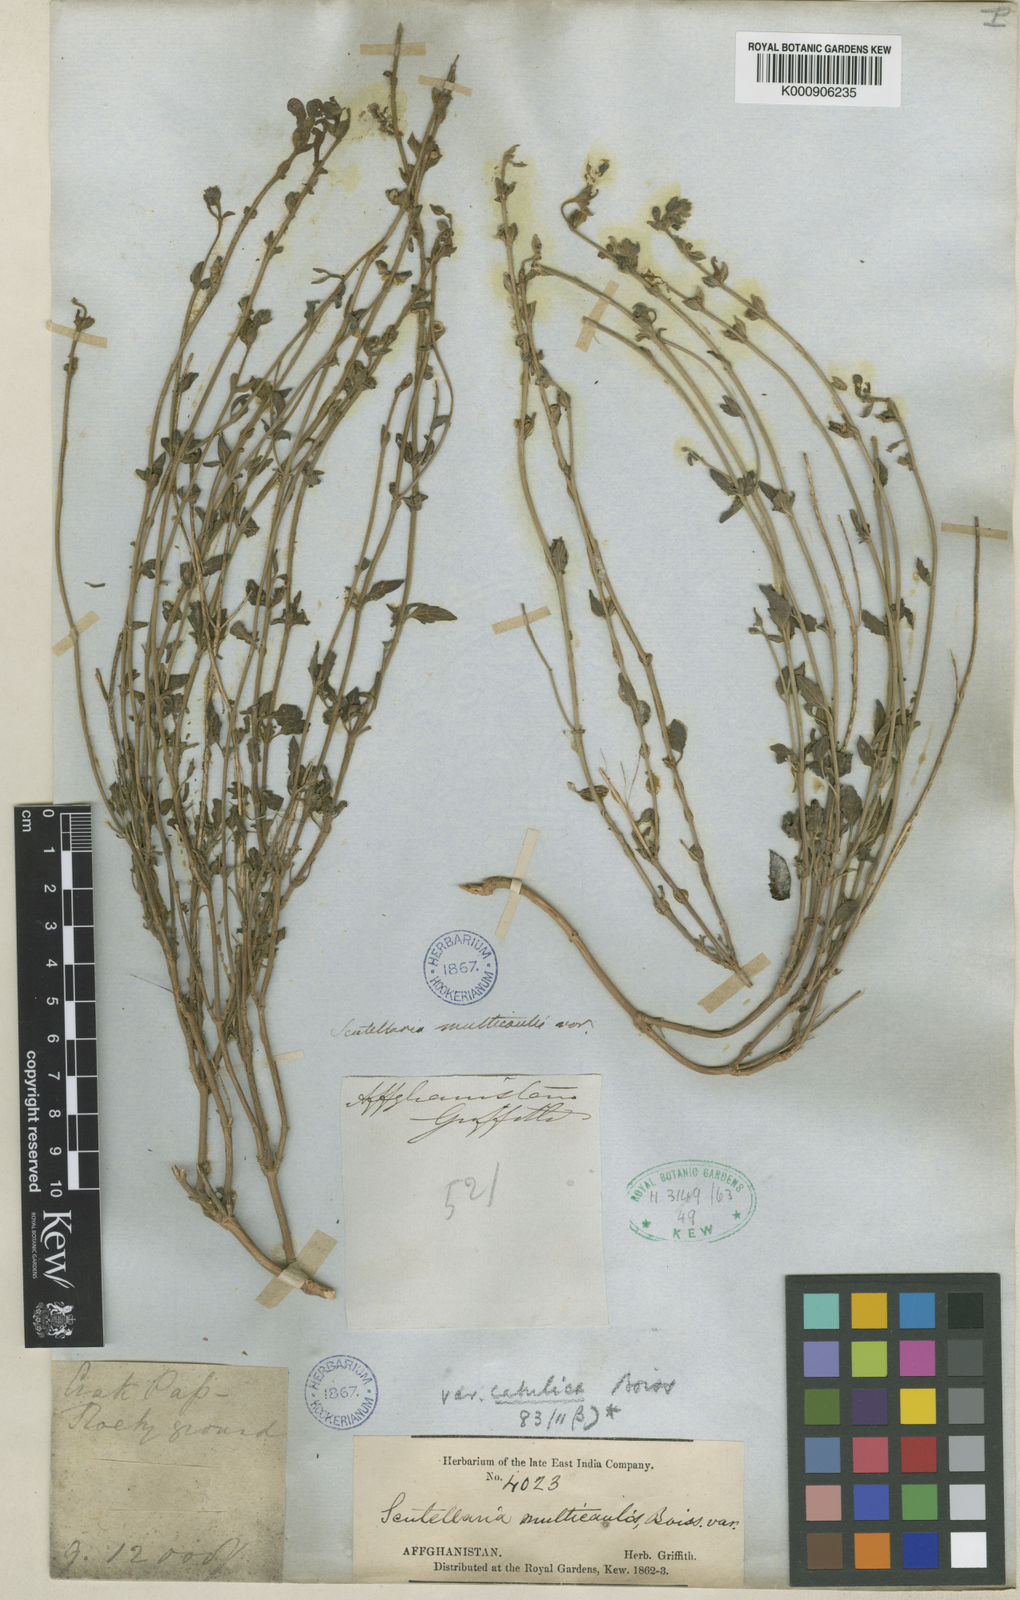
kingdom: Plantae
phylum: Tracheophyta
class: Magnoliopsida
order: Lamiales
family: Lamiaceae
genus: Scutellaria
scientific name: Scutellaria multicaulis
